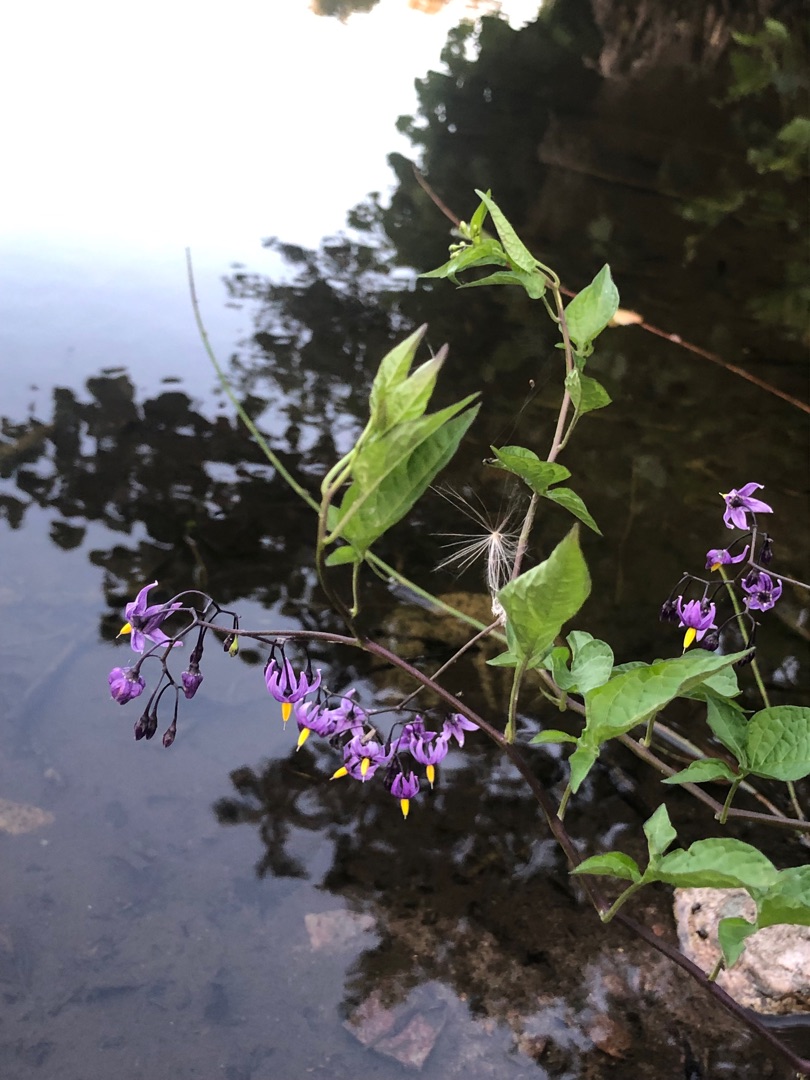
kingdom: Plantae
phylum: Tracheophyta
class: Magnoliopsida
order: Solanales
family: Solanaceae
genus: Solanum
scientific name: Solanum dulcamara
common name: Bittersød natskygge
